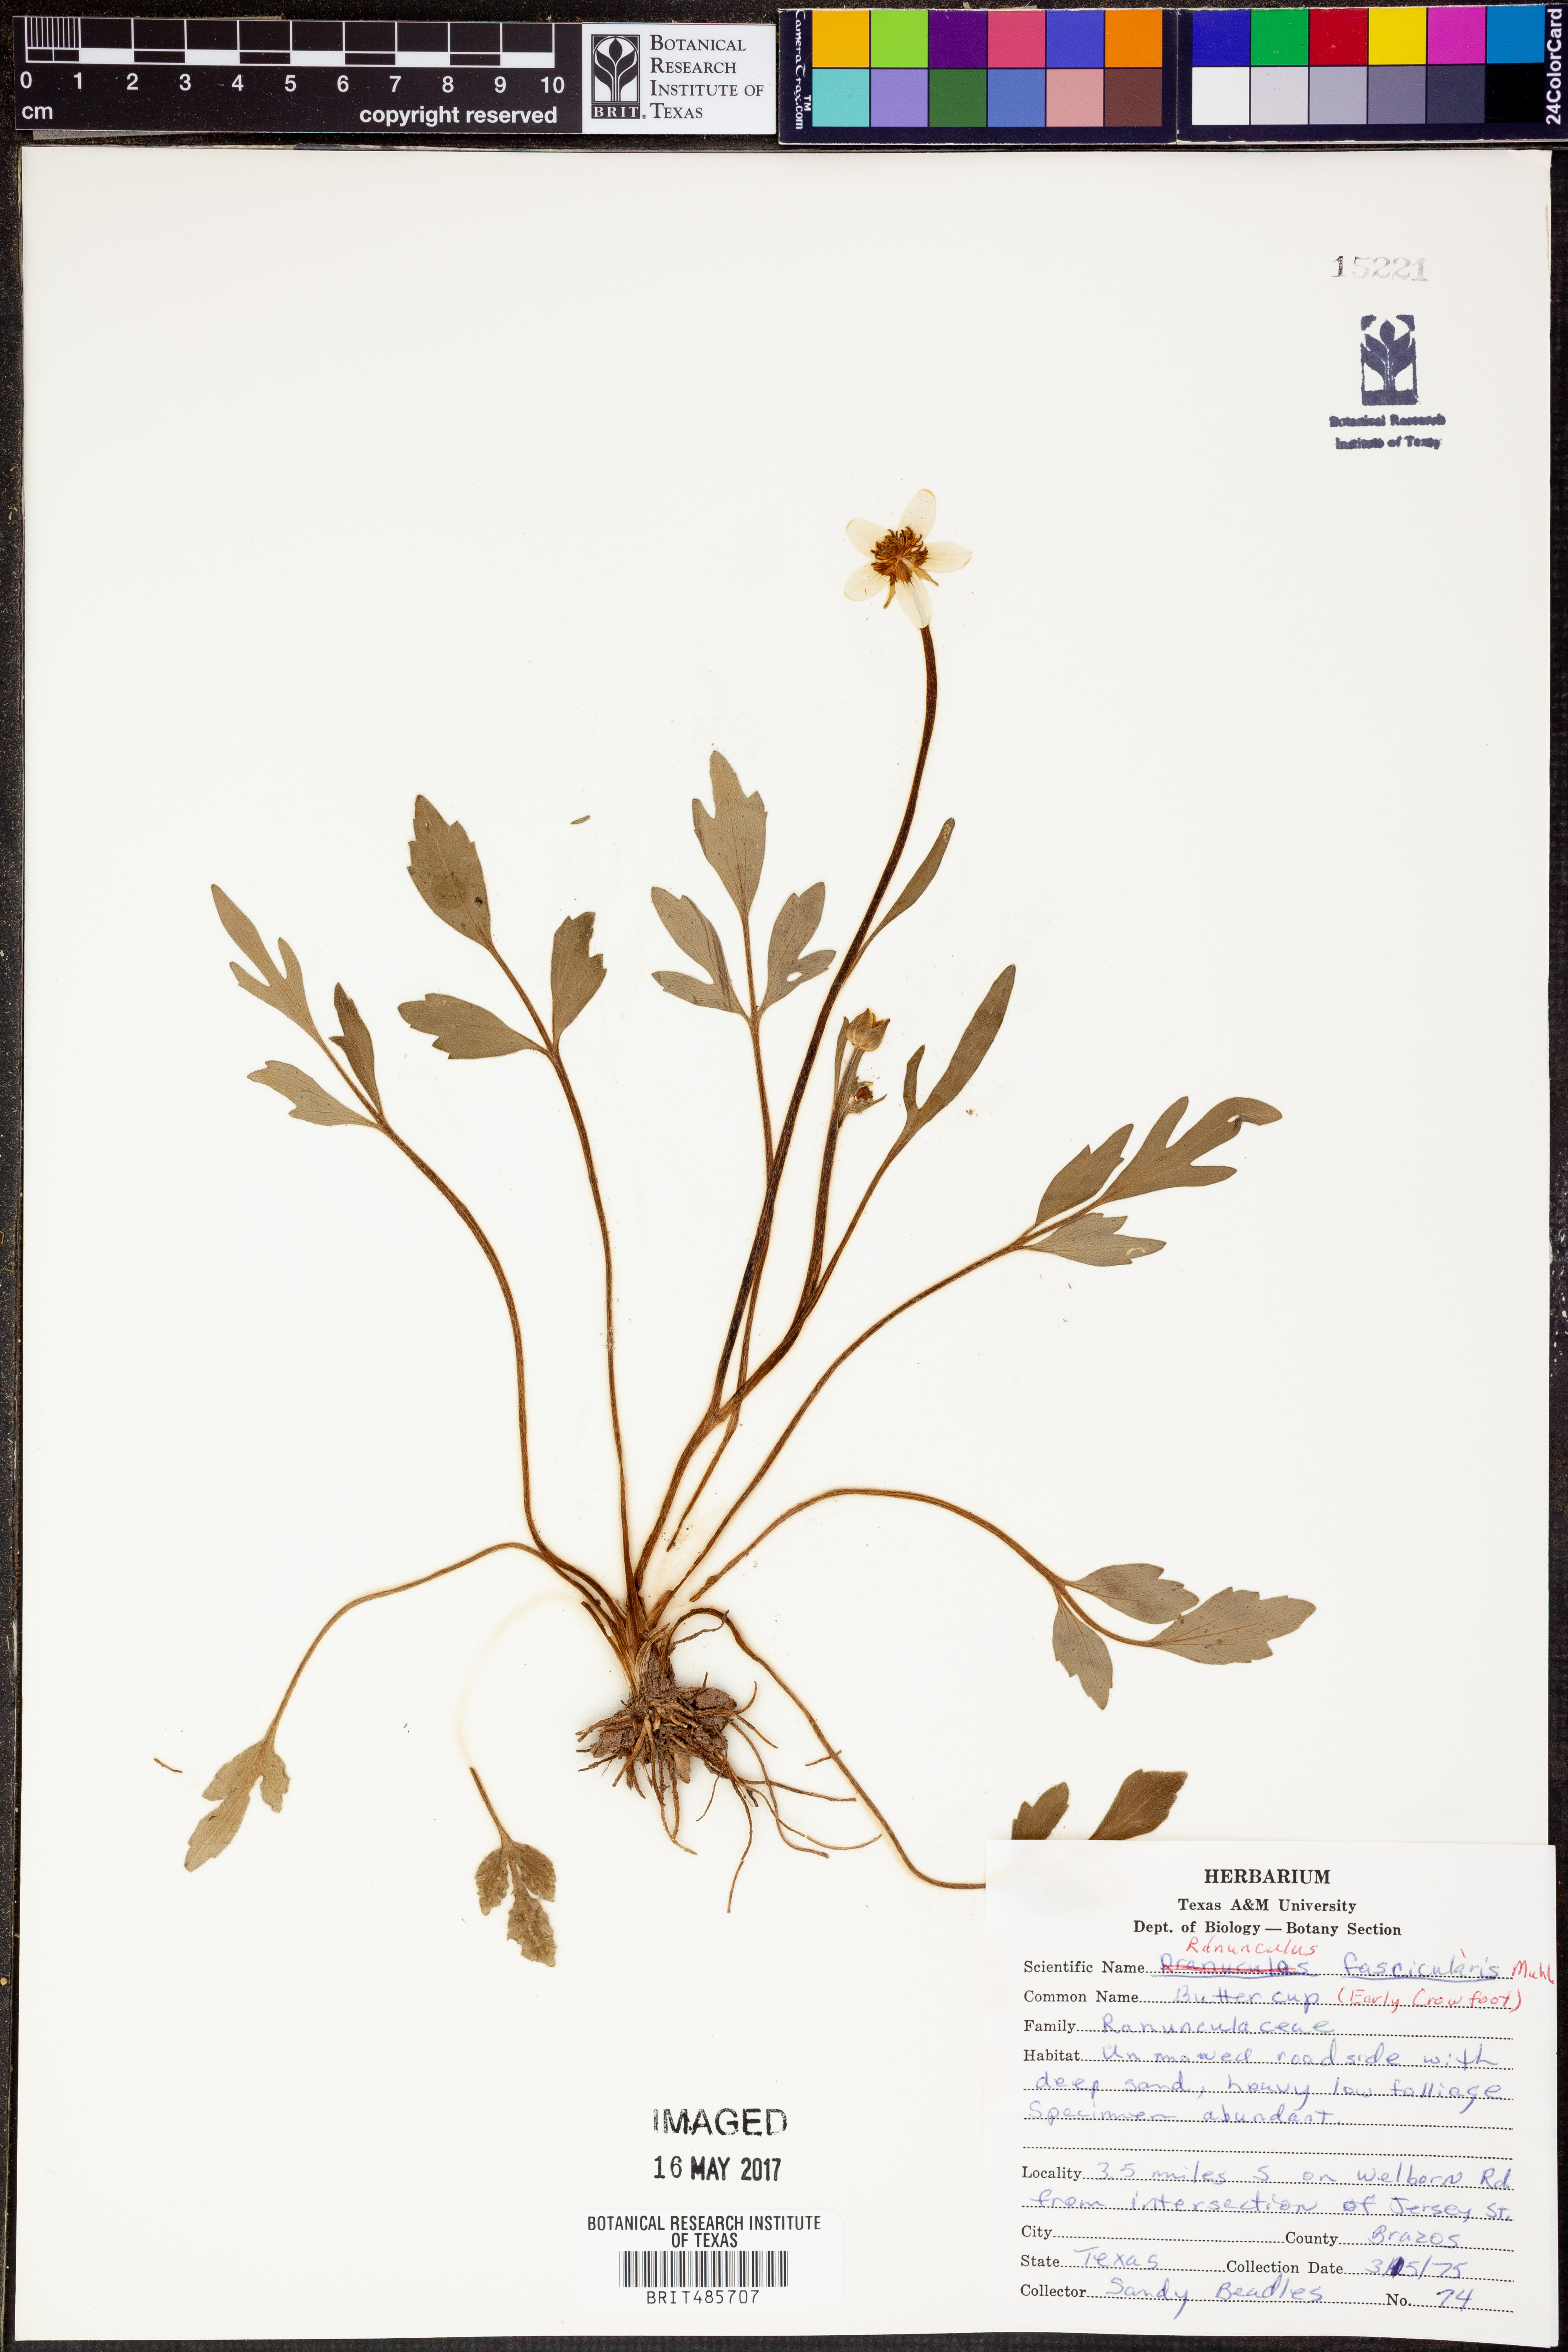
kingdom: Plantae
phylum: Tracheophyta
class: Magnoliopsida
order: Ranunculales
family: Ranunculaceae
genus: Ranunculus
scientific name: Ranunculus fascicularis
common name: Early buttercup
